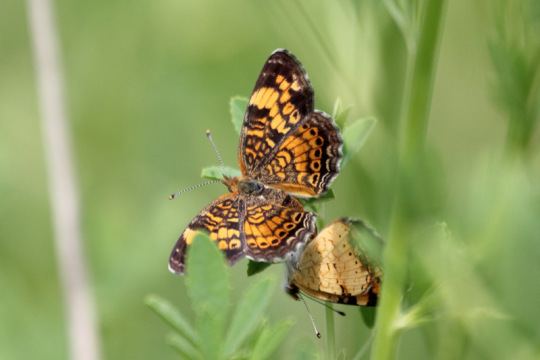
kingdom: Animalia
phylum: Arthropoda
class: Insecta
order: Lepidoptera
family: Nymphalidae
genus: Phyciodes
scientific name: Phyciodes tharos
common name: Pearl Crescent
